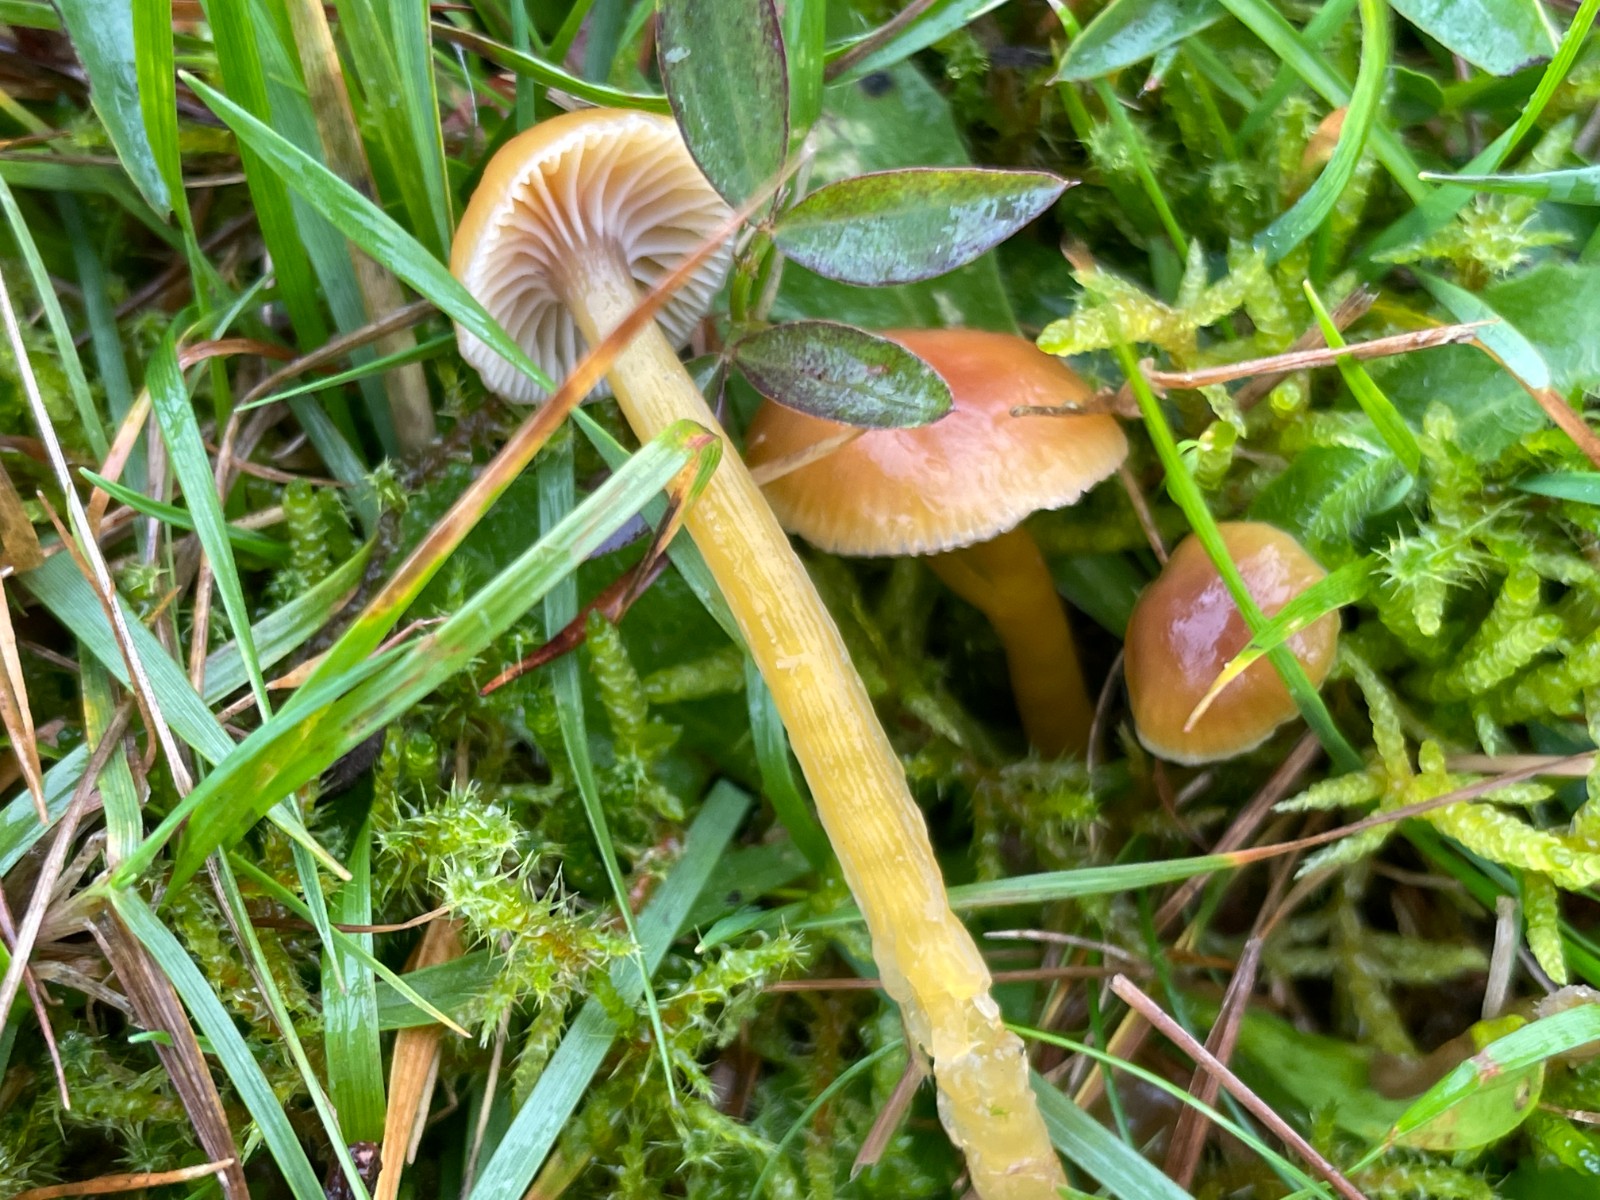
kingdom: Fungi
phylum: Basidiomycota
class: Agaricomycetes
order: Agaricales
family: Hygrophoraceae
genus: Gliophorus
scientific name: Gliophorus laetus
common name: brusk-vokshat
